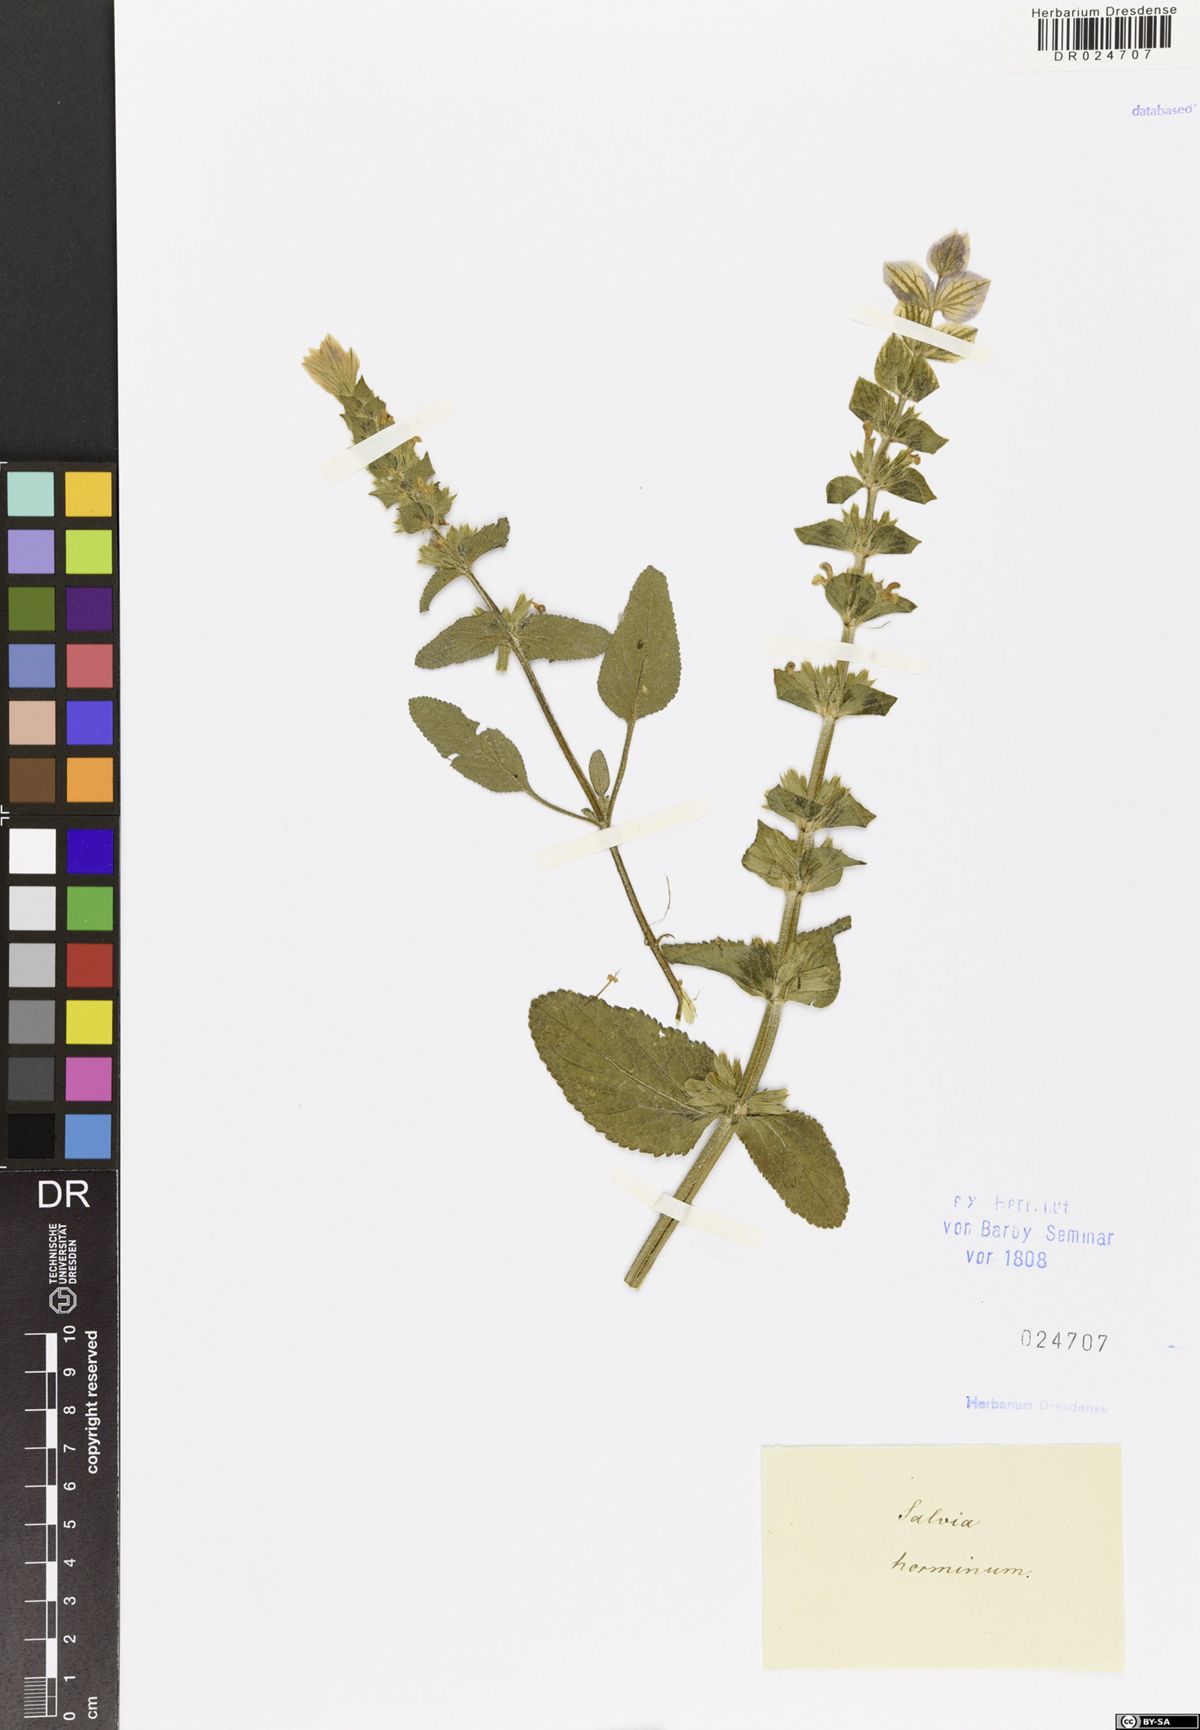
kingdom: Plantae
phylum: Tracheophyta
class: Magnoliopsida
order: Lamiales
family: Lamiaceae
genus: Salvia
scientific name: Salvia viridis
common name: Annual clary
